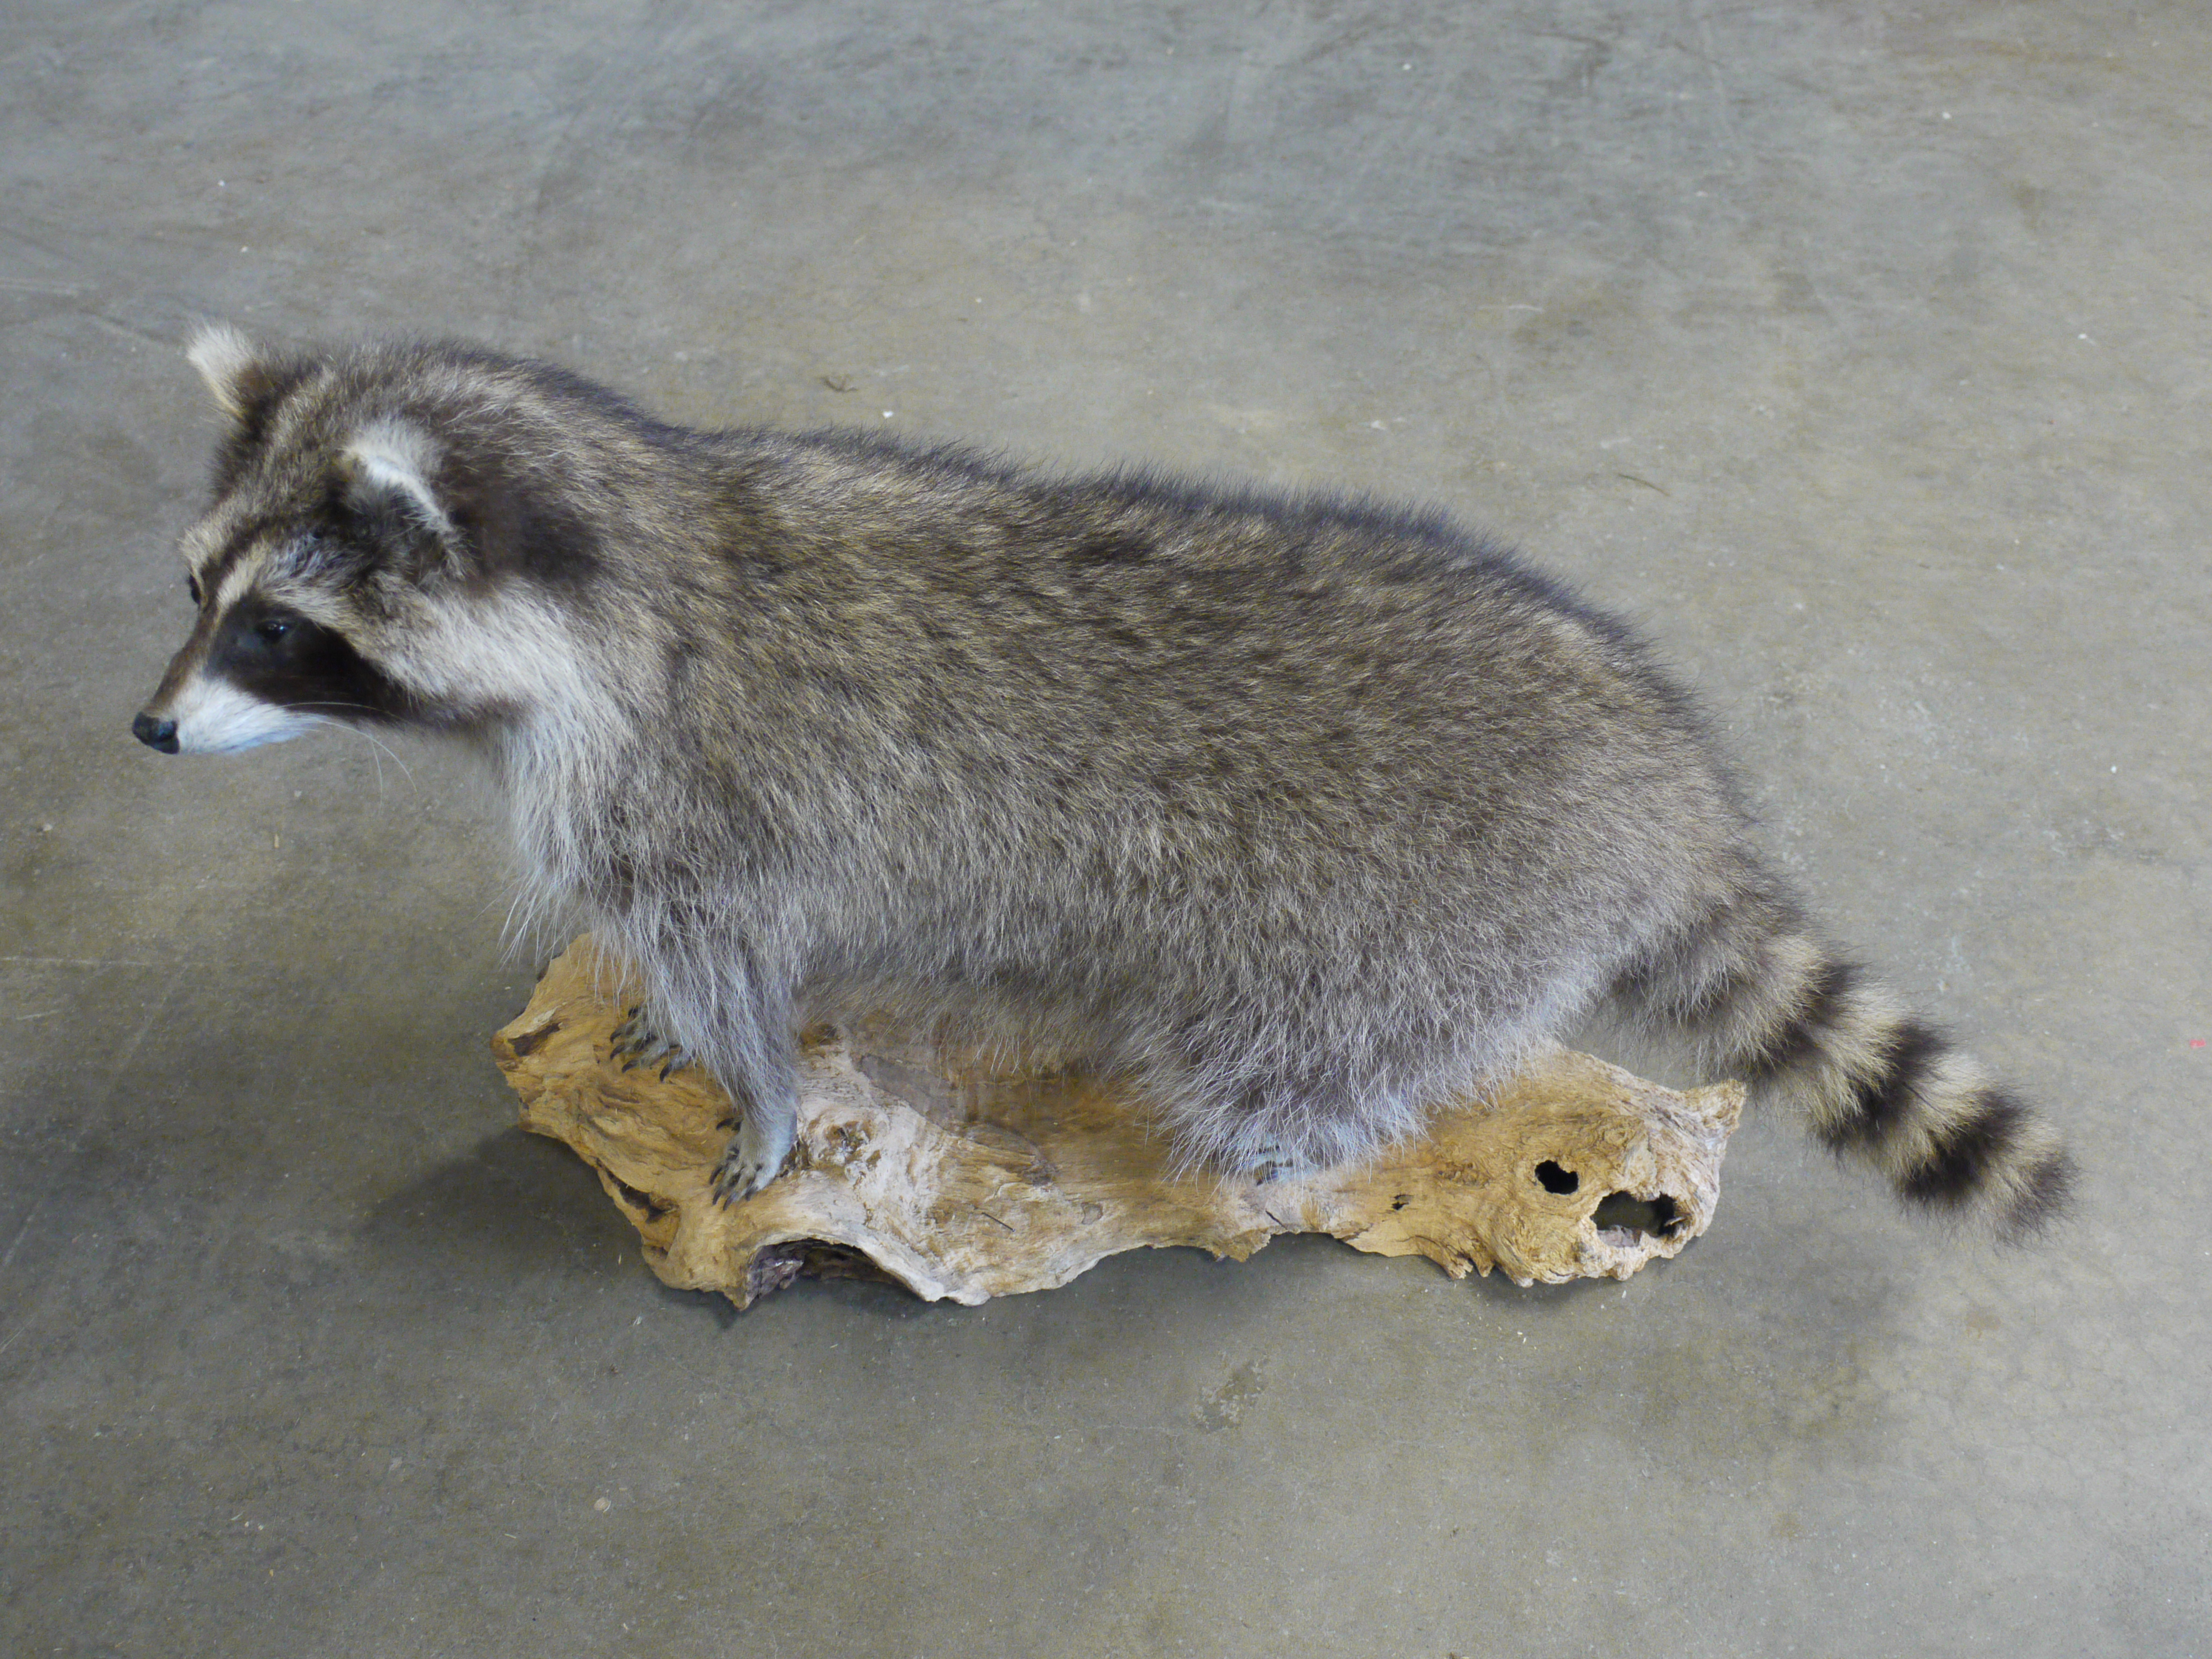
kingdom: Animalia
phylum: Chordata
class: Mammalia
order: Carnivora
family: Procyonidae
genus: Procyon
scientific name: Procyon lotor
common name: Raccoon
